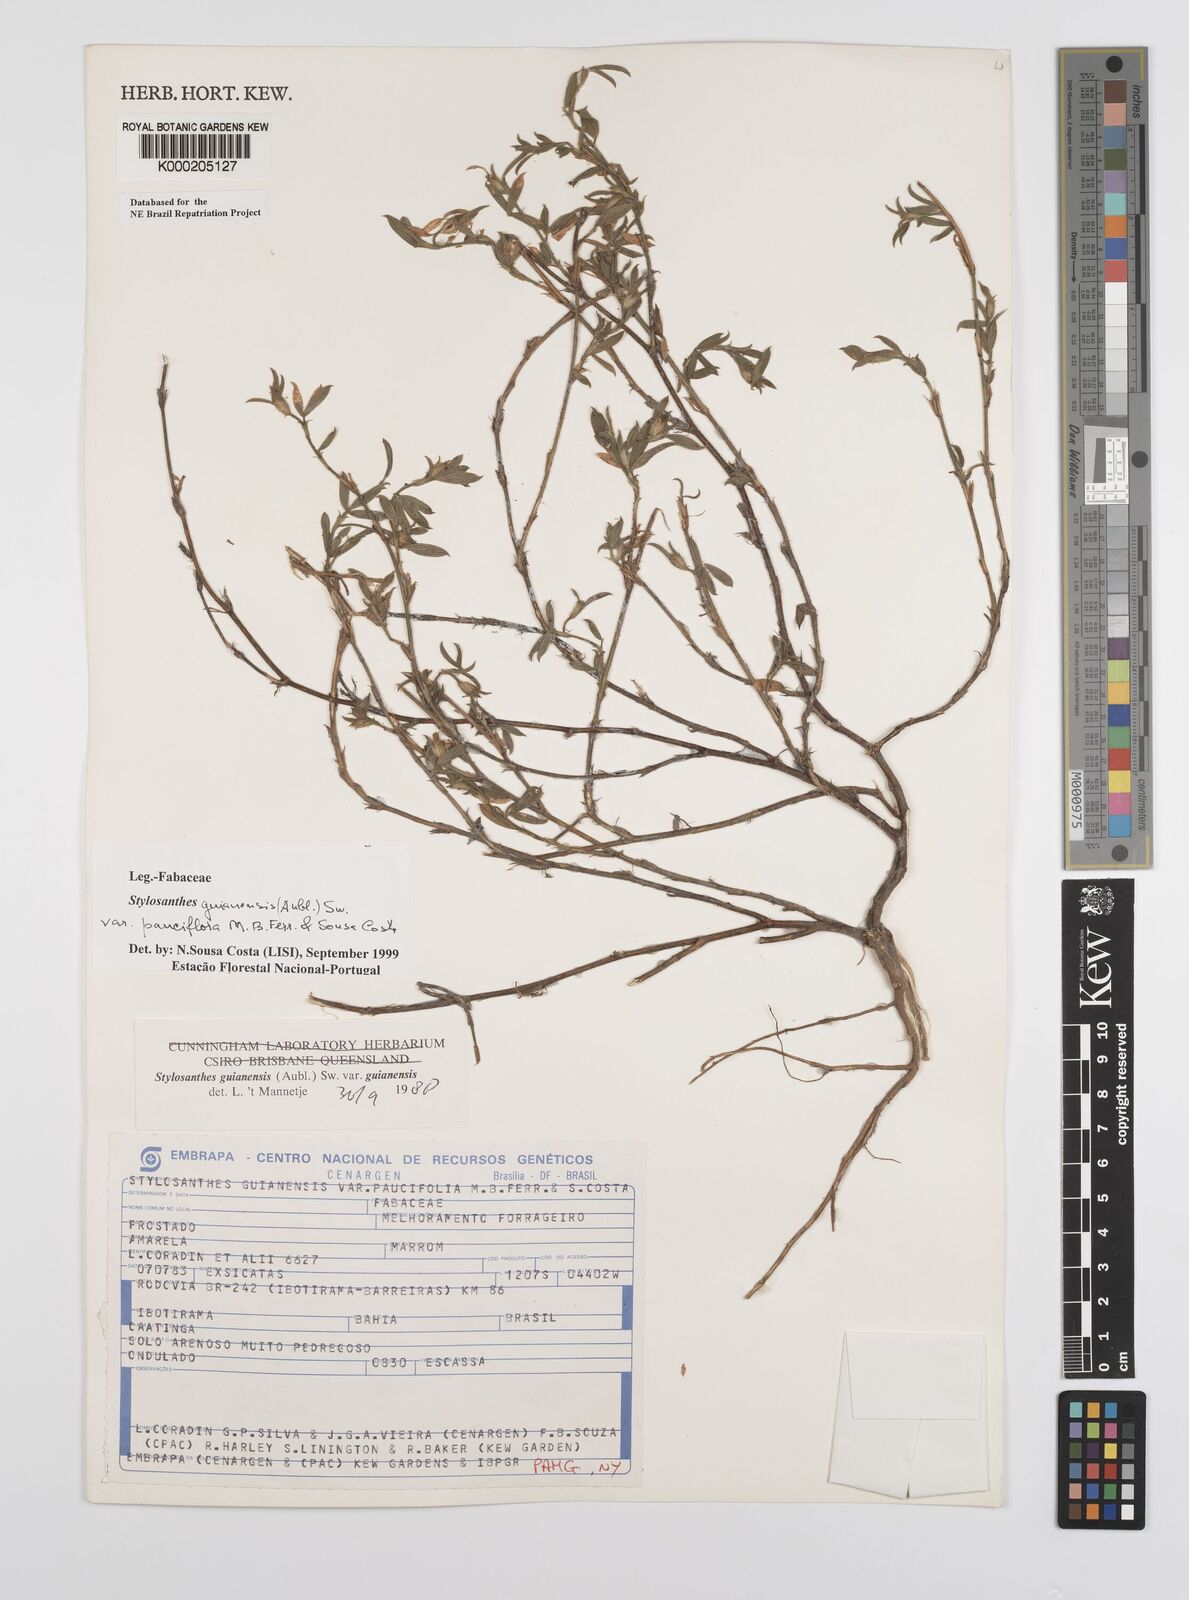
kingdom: Plantae
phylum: Tracheophyta
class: Magnoliopsida
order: Fabales
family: Fabaceae
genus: Stylosanthes
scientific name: Stylosanthes guianensis
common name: Pencil flower
